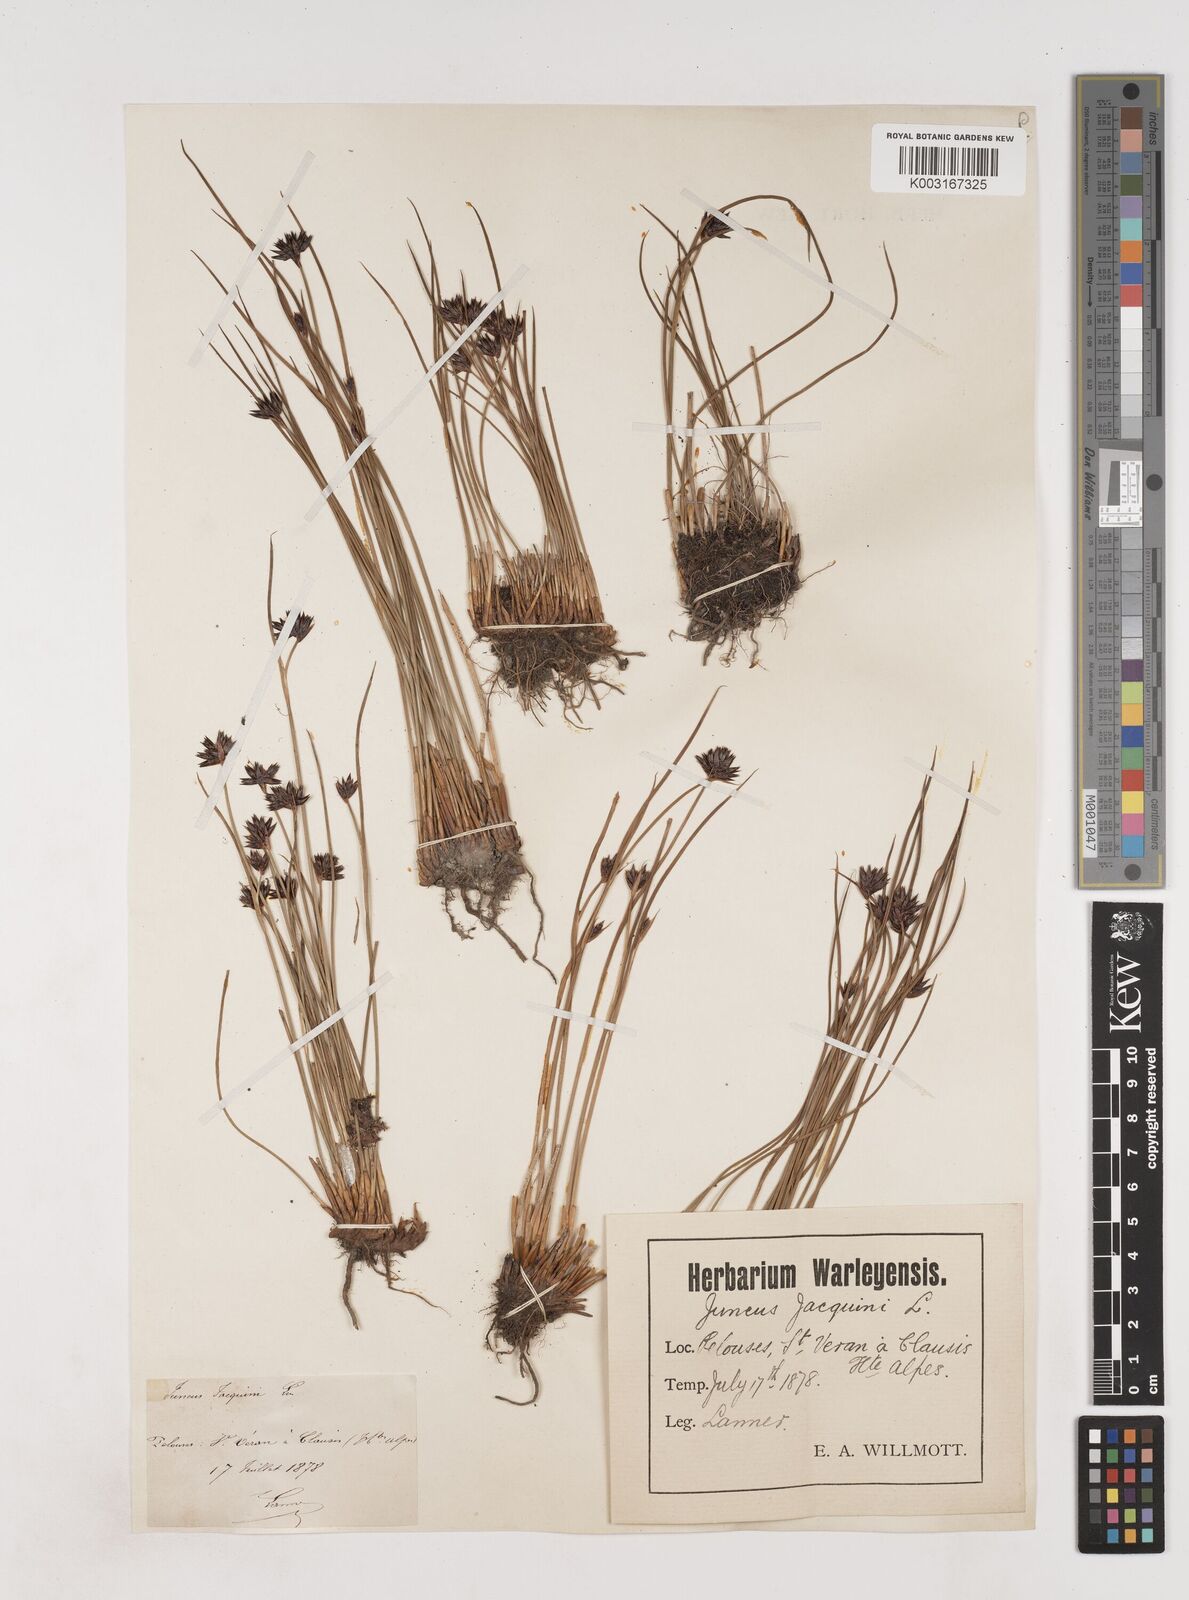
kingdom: Plantae
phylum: Tracheophyta
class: Liliopsida
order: Poales
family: Juncaceae
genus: Juncus
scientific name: Juncus jacquinii
